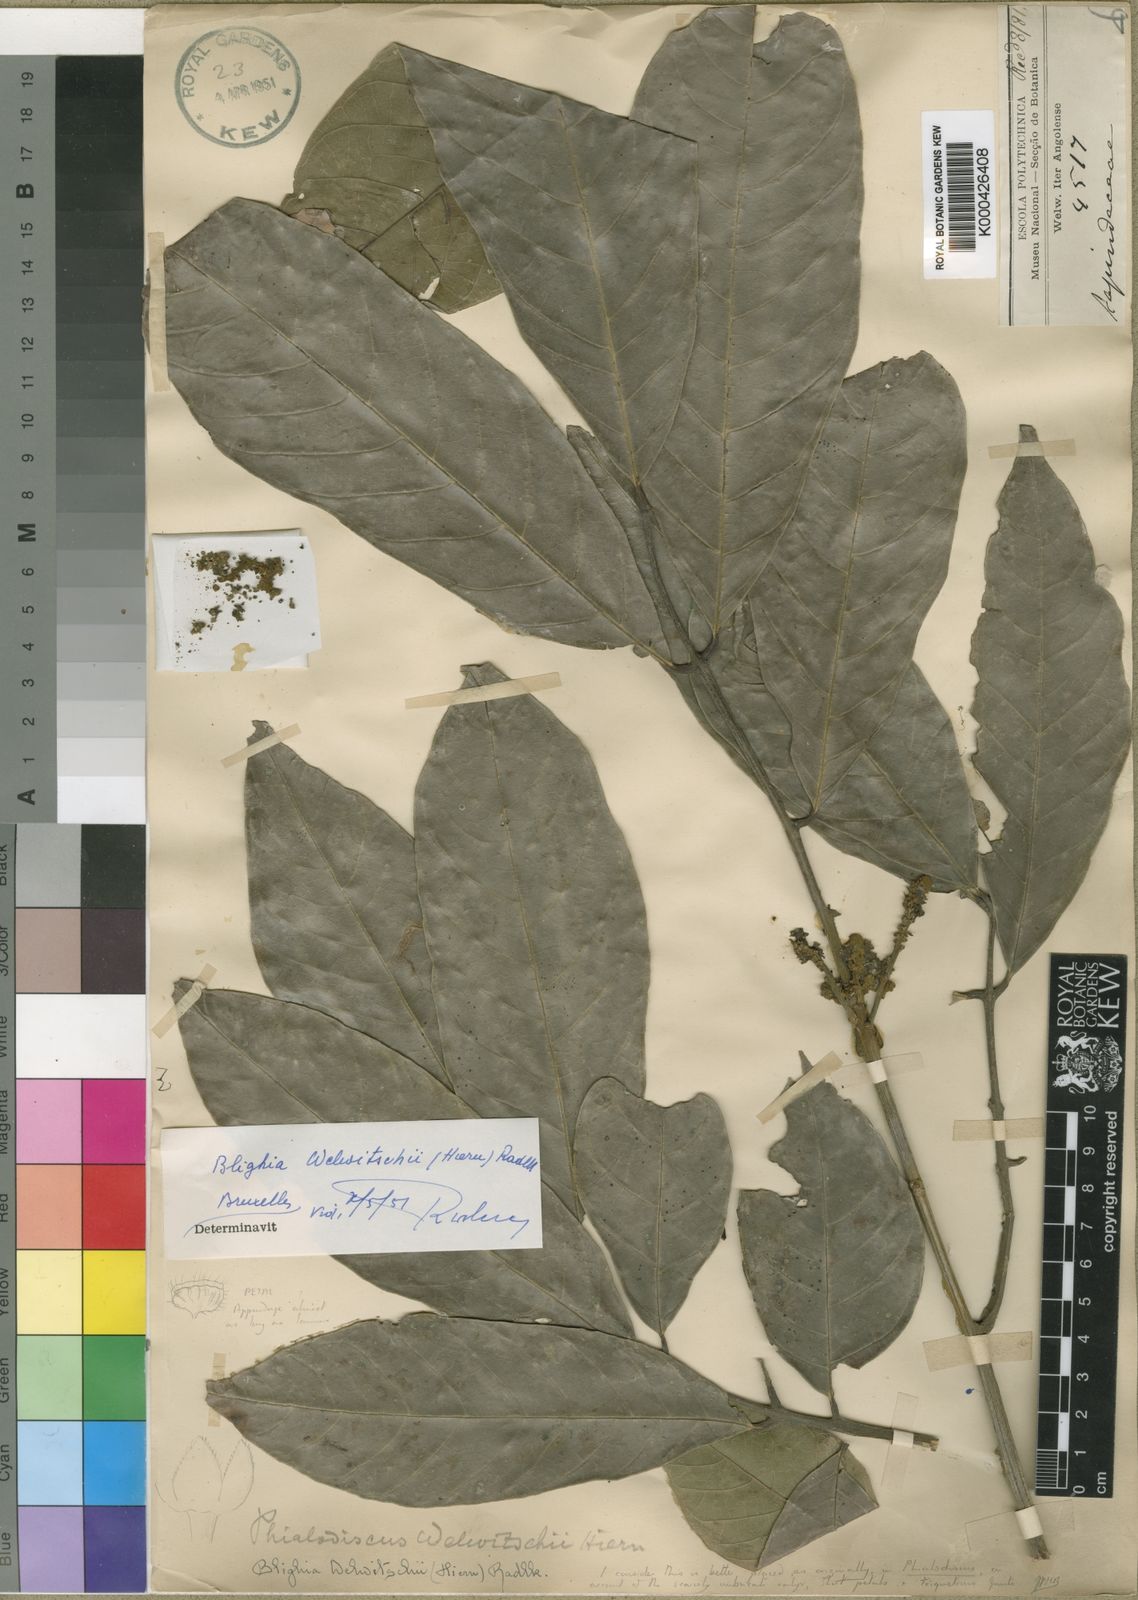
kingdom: Plantae
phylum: Tracheophyta
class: Magnoliopsida
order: Sapindales
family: Sapindaceae
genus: Blighia
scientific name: Blighia unijugata
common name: Triangle tops
